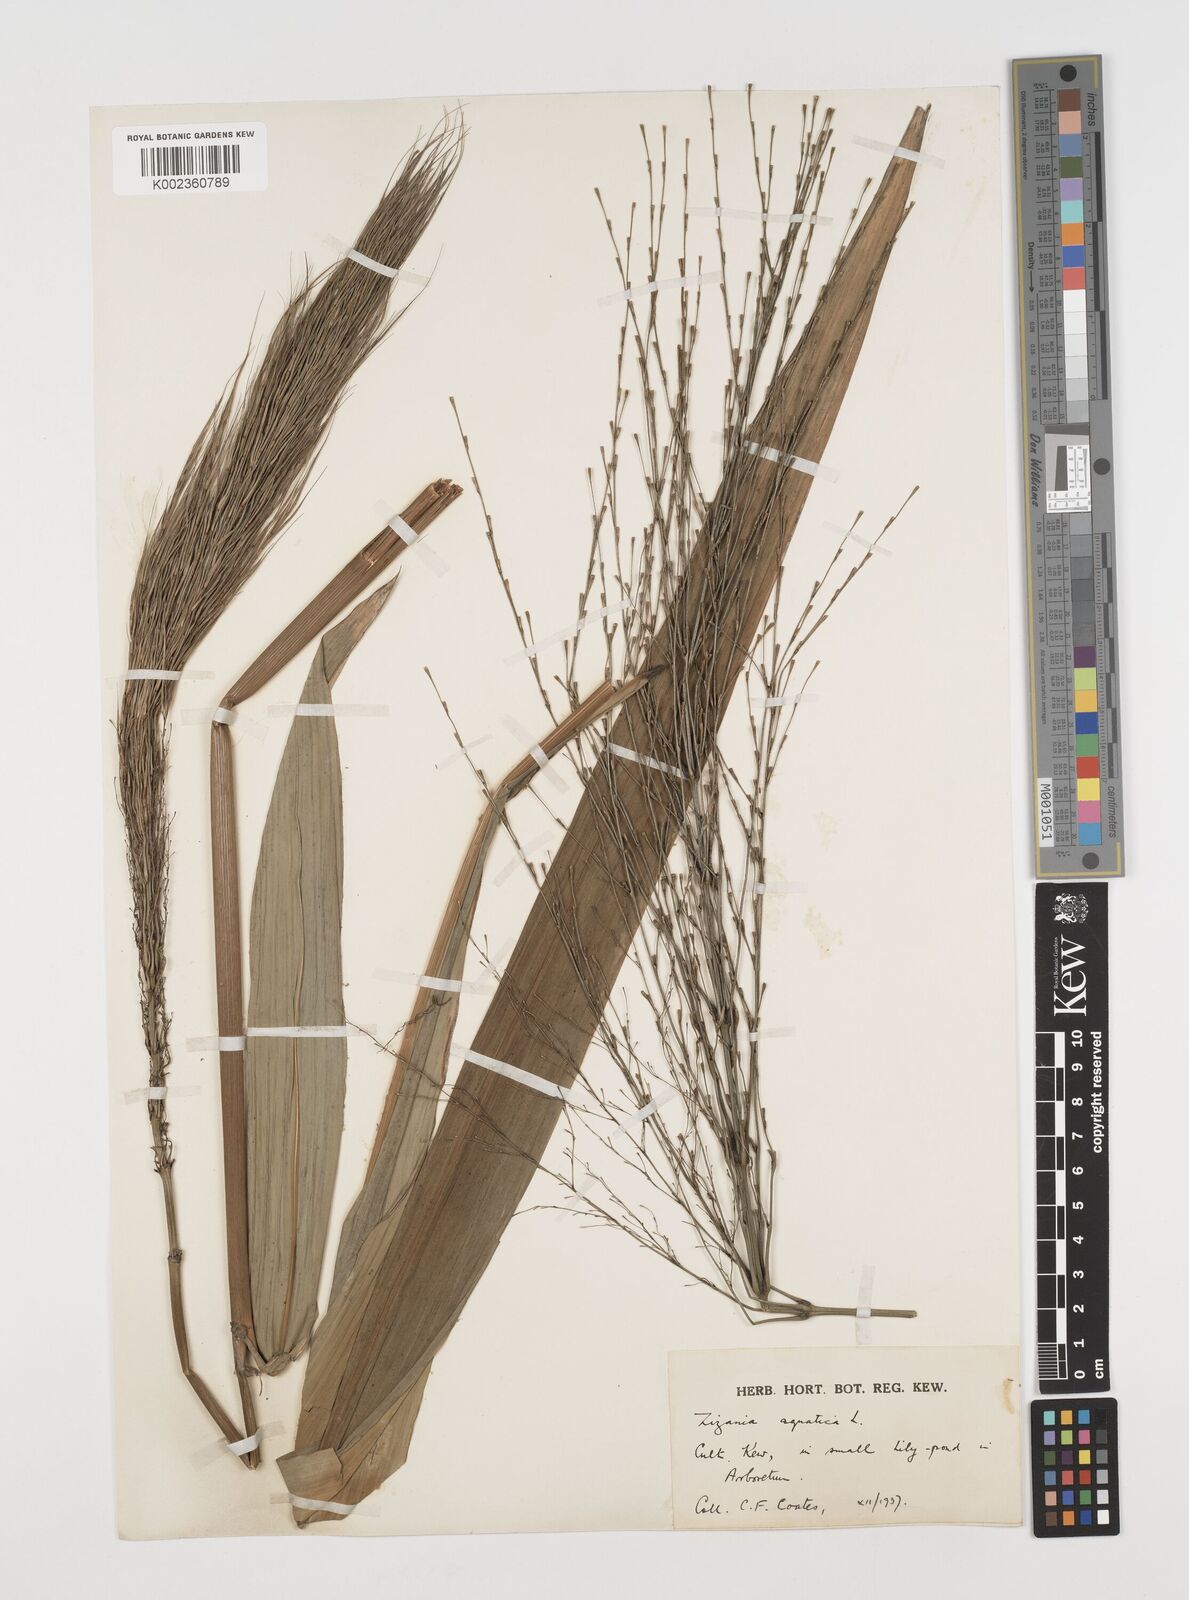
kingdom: Plantae
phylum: Tracheophyta
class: Liliopsida
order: Poales
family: Poaceae
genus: Zizania
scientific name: Zizania aquatica
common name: Annual wildrice
